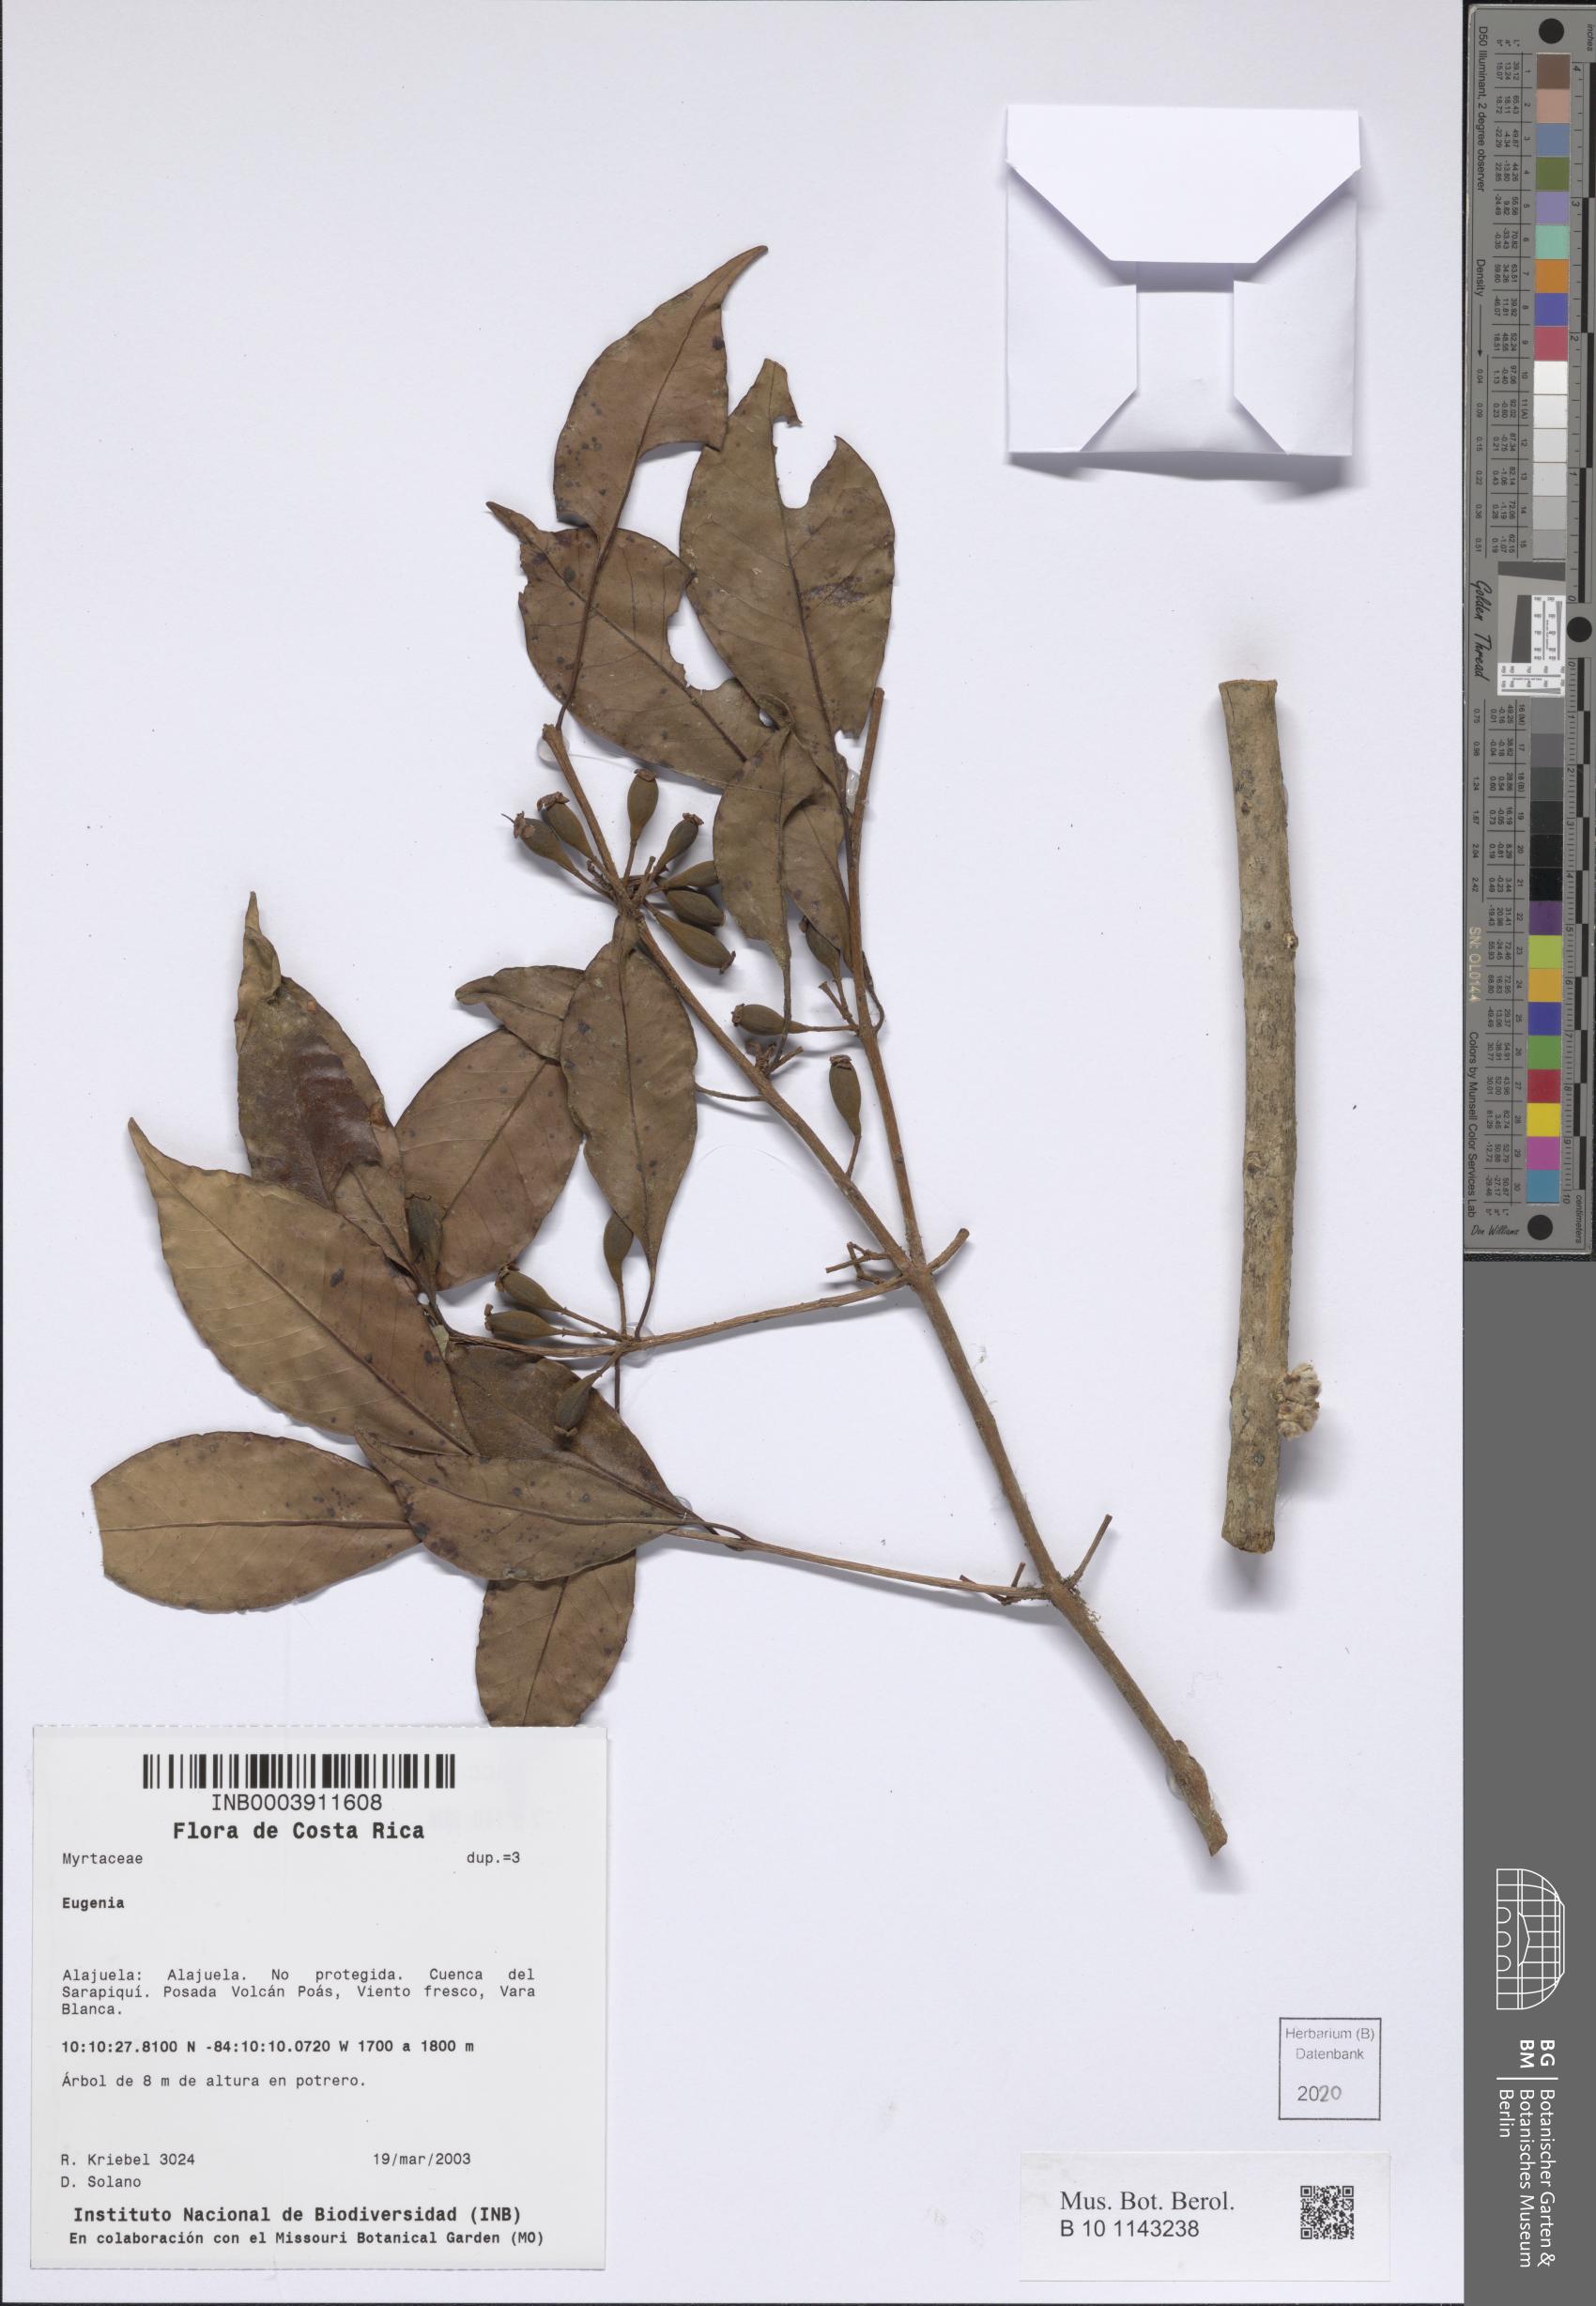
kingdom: Plantae
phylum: Tracheophyta
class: Magnoliopsida
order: Myrtales
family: Myrtaceae
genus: Eugenia
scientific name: Eugenia
